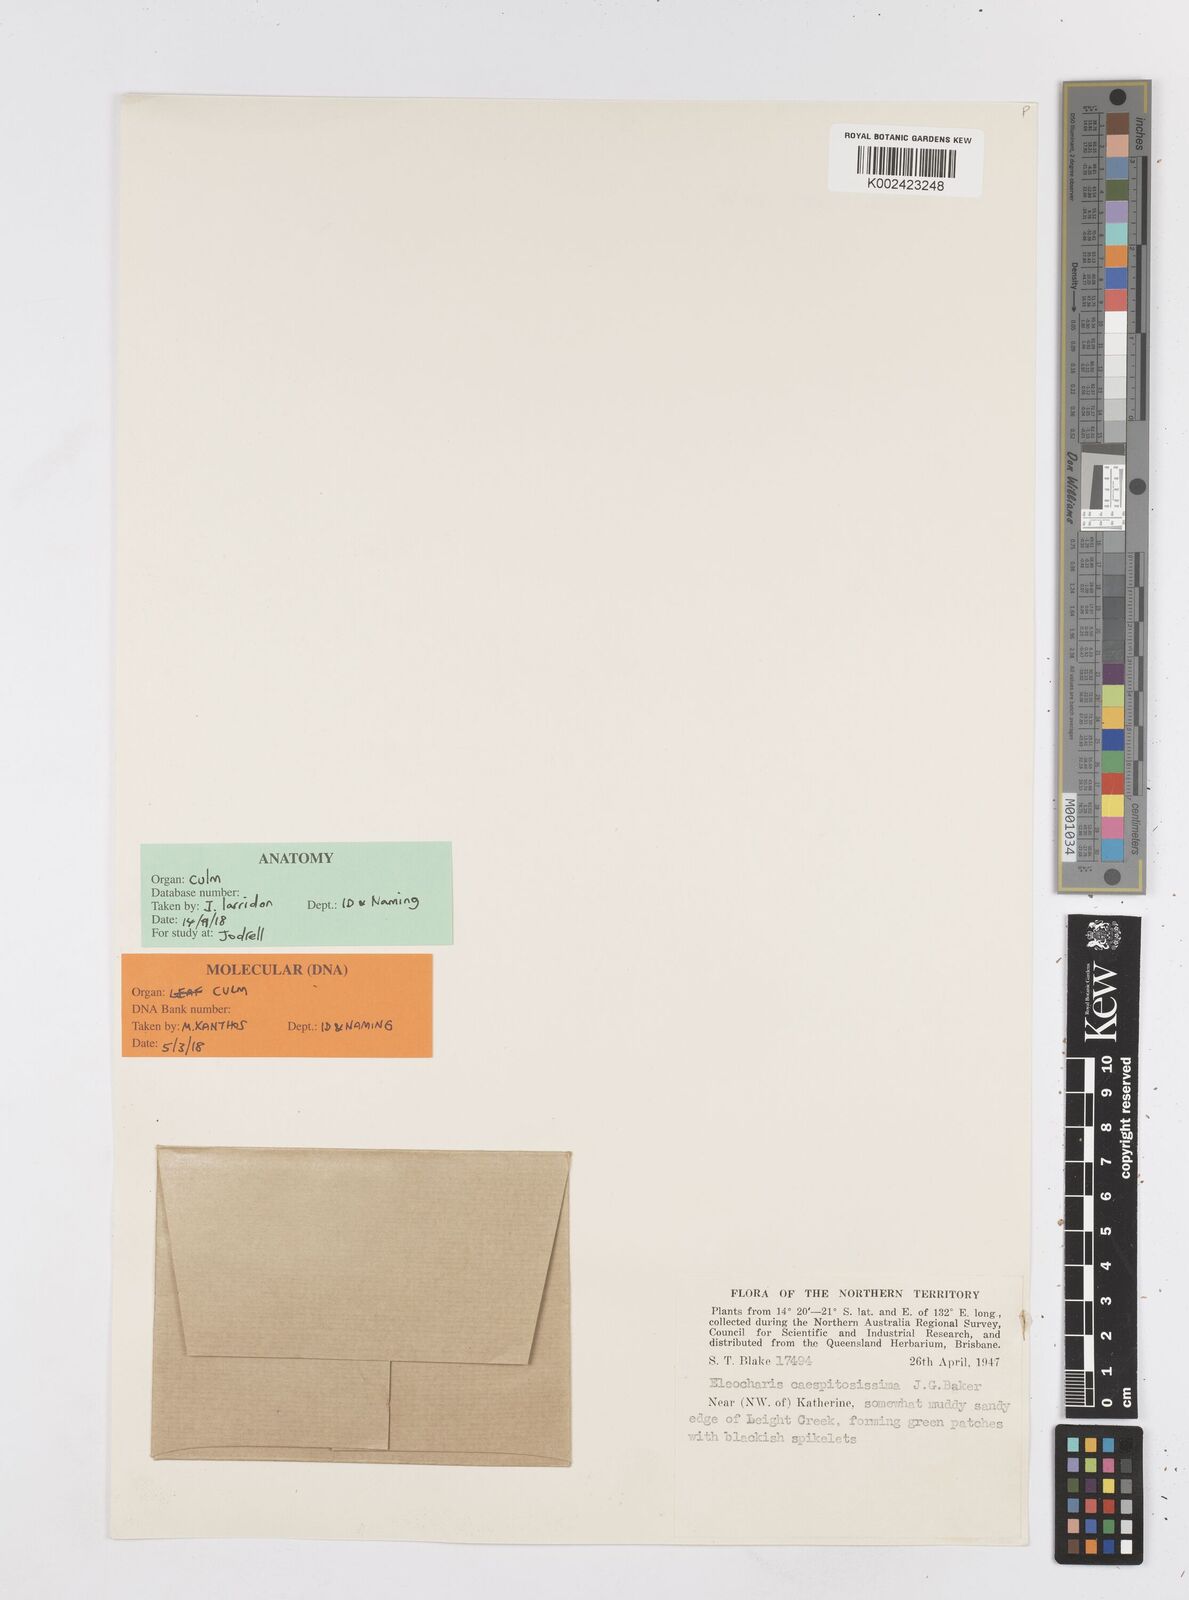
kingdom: Plantae
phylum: Tracheophyta
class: Liliopsida
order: Poales
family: Cyperaceae
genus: Eleocharis
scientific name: Eleocharis caespitosissima
